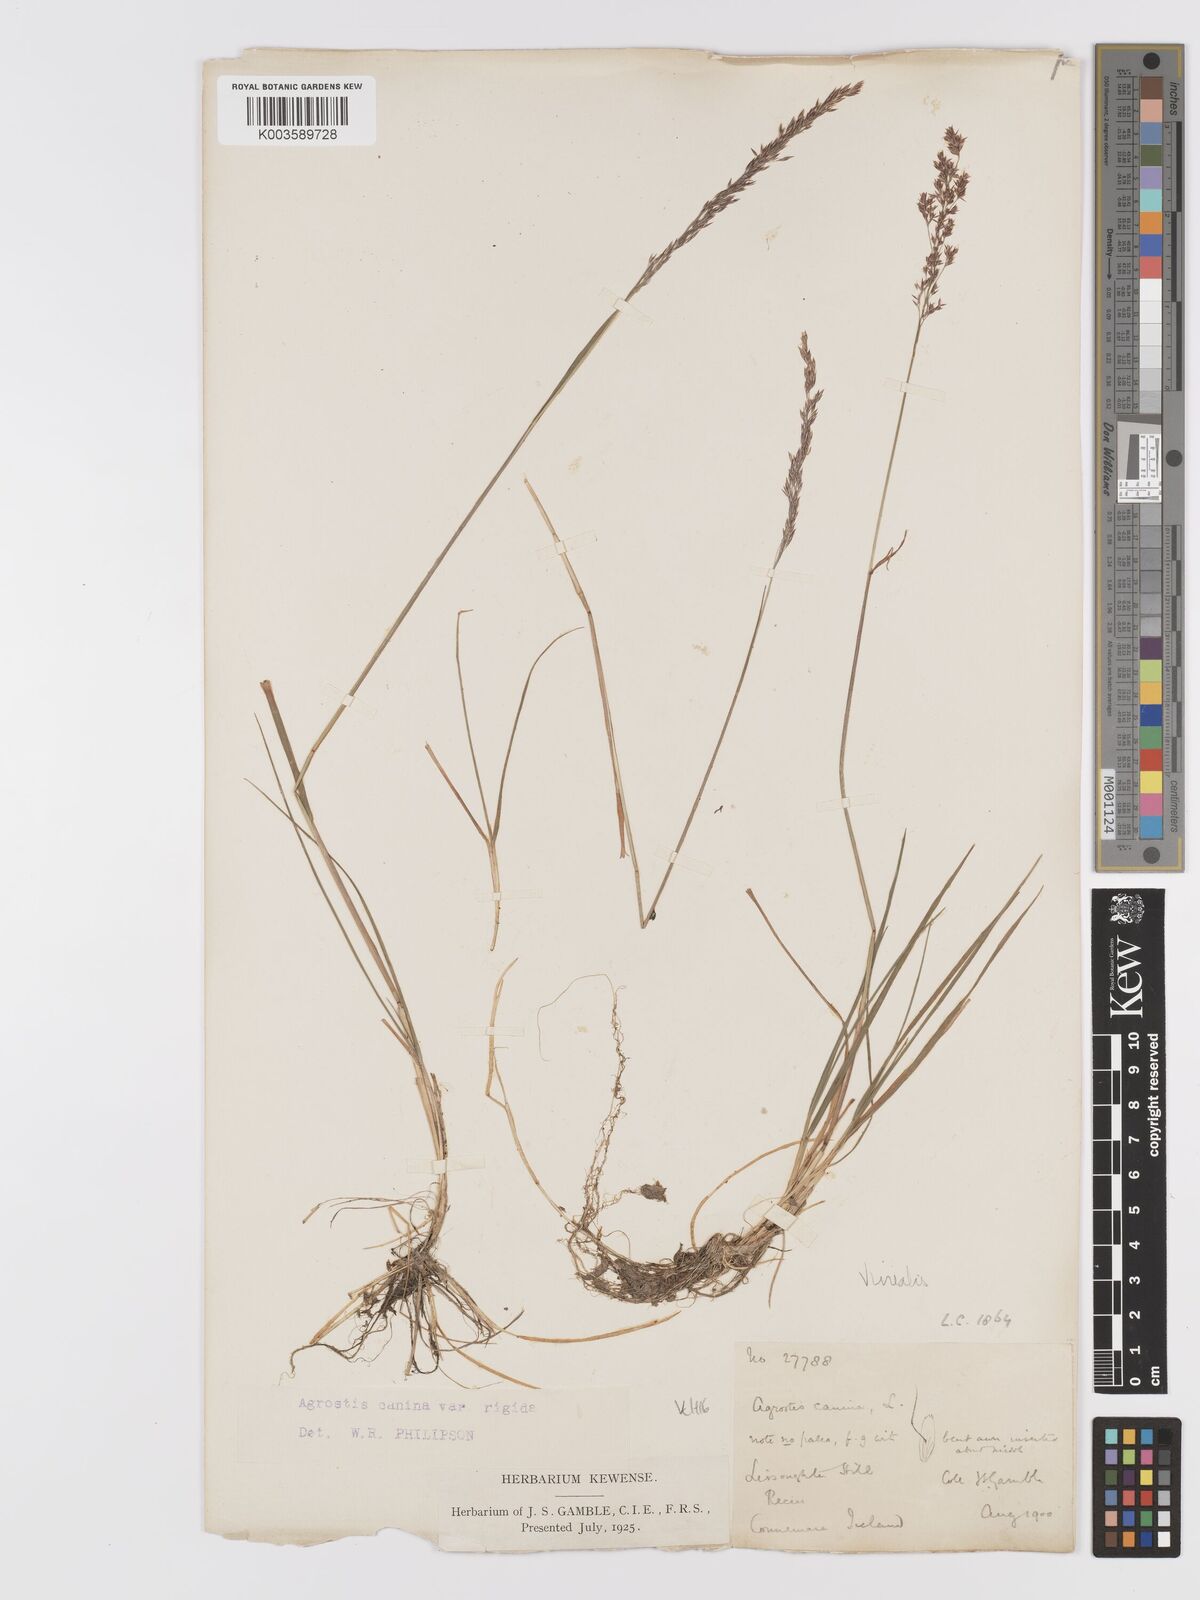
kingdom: Plantae
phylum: Tracheophyta
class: Liliopsida
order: Poales
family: Poaceae
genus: Agrostis
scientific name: Agrostis
